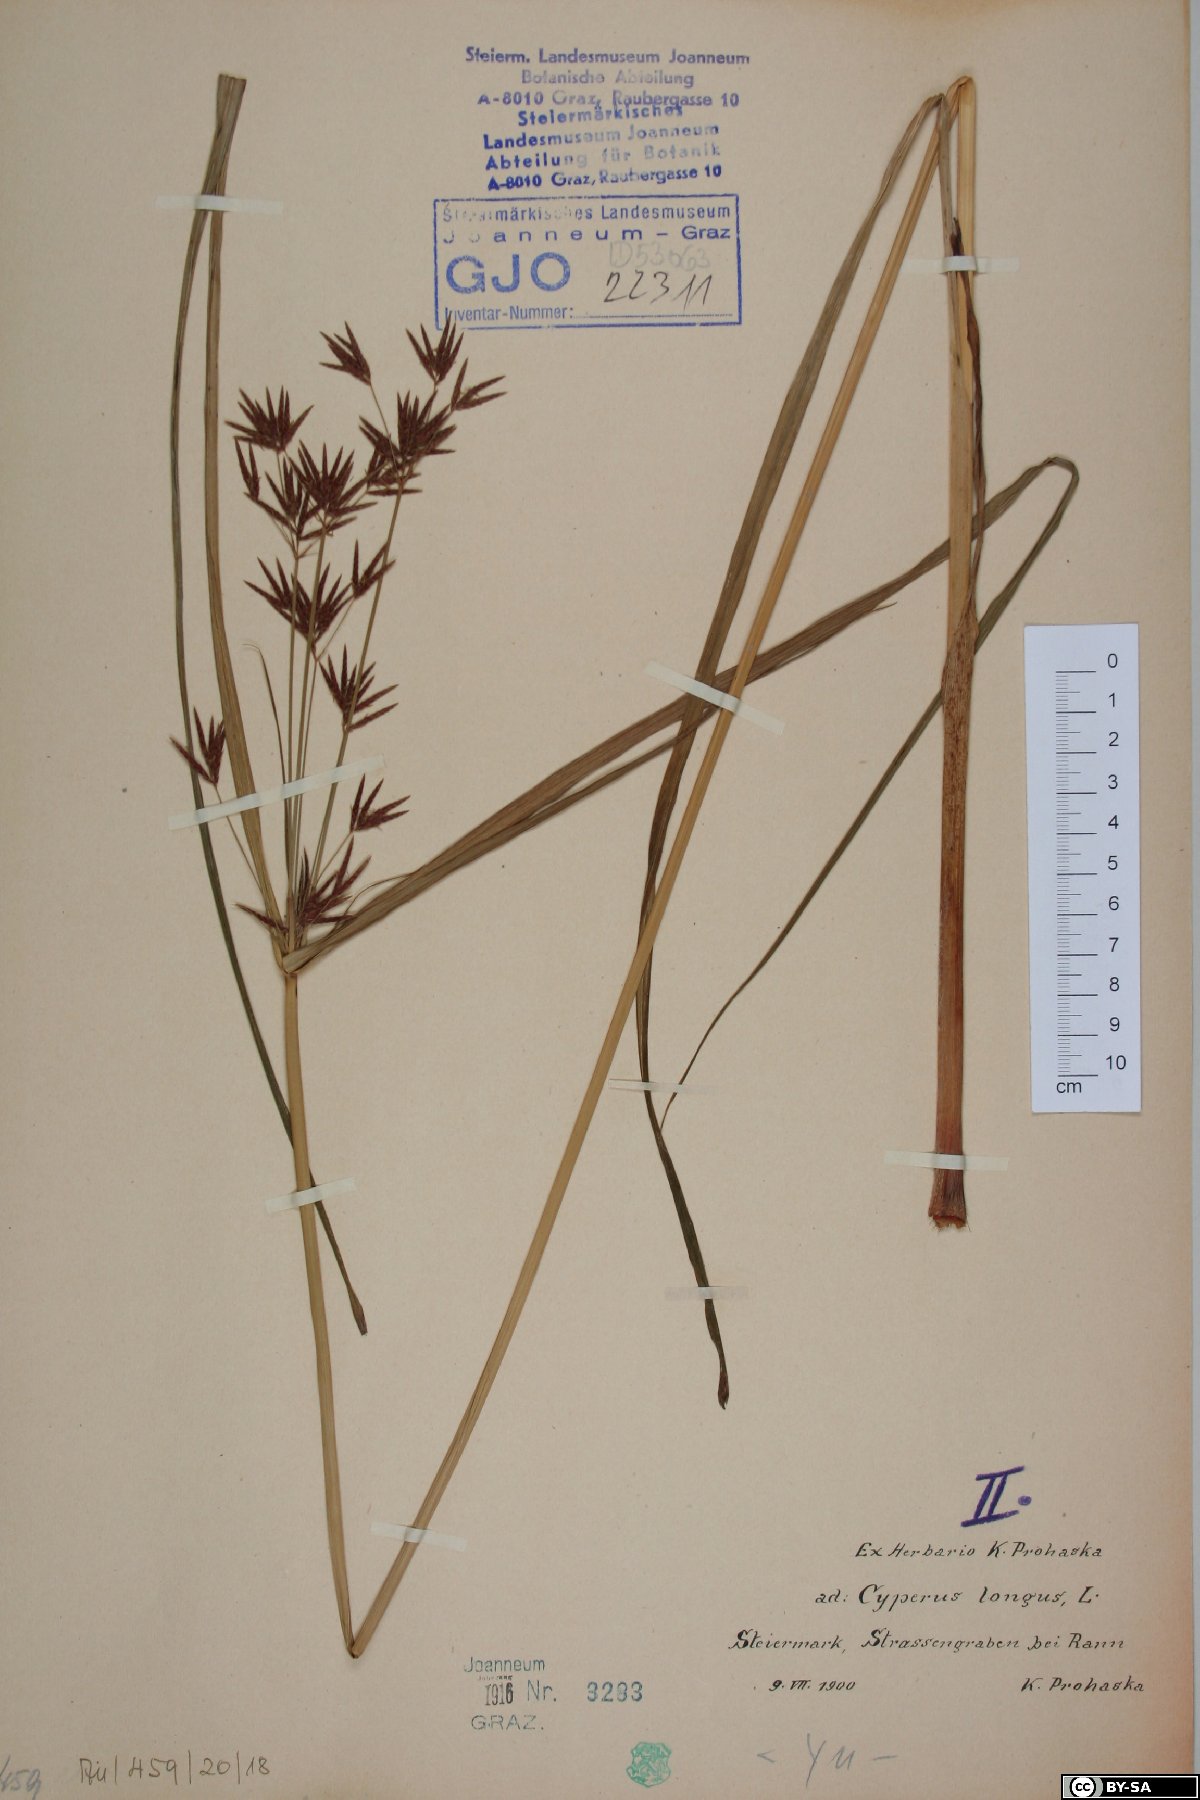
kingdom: Plantae
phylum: Tracheophyta
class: Liliopsida
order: Poales
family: Cyperaceae
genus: Cyperus
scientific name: Cyperus longus
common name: Galingale
